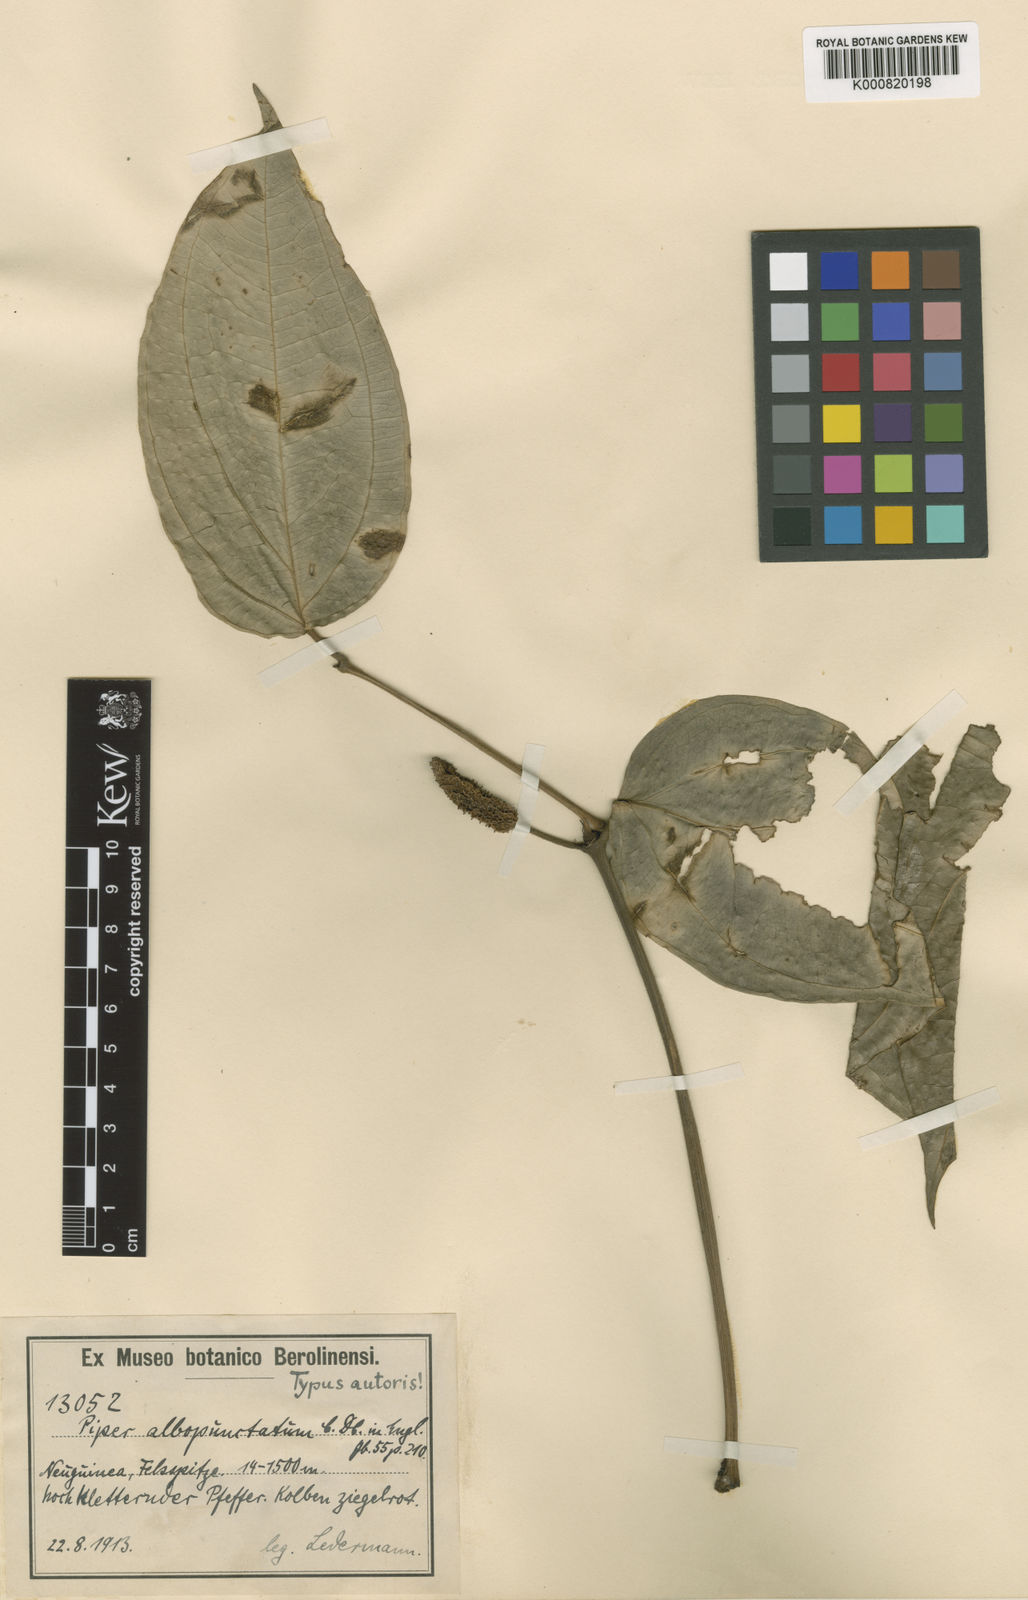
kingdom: Plantae
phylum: Tracheophyta
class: Magnoliopsida
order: Piperales
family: Piperaceae
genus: Piper
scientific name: Piper mestonii
